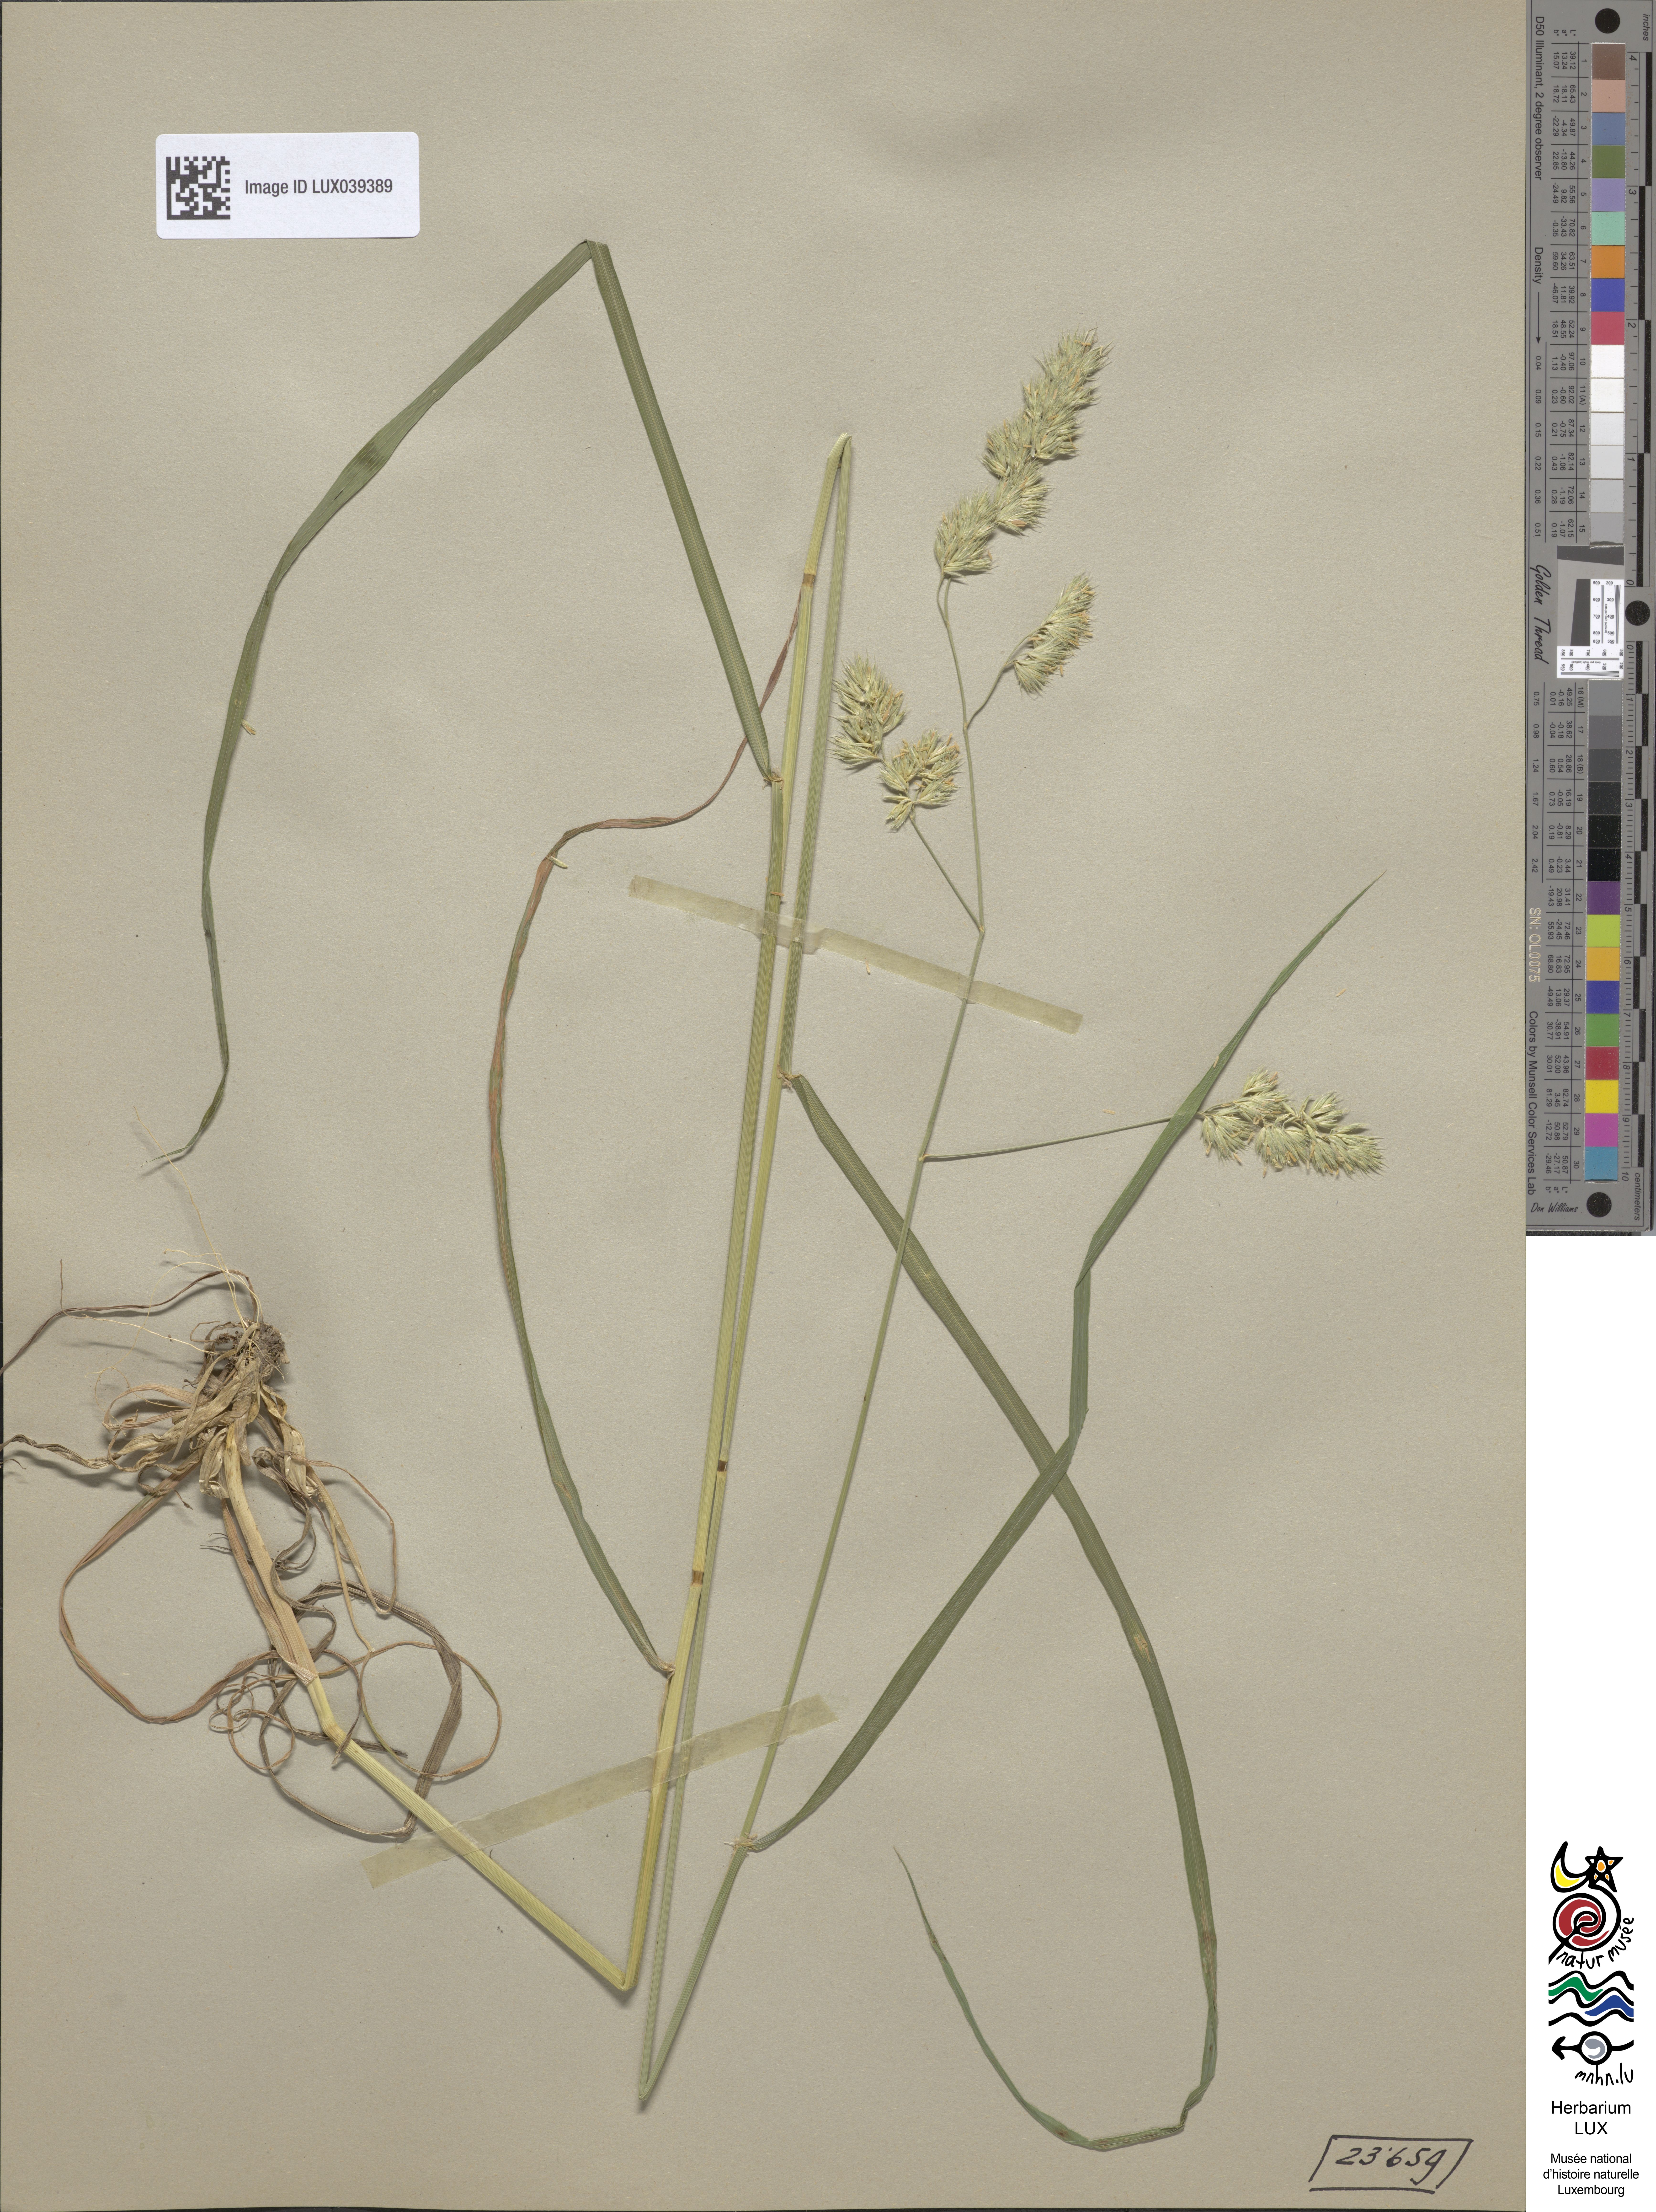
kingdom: Plantae
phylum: Tracheophyta
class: Liliopsida
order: Poales
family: Poaceae
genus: Dactylis
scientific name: Dactylis glomerata
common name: Orchardgrass
